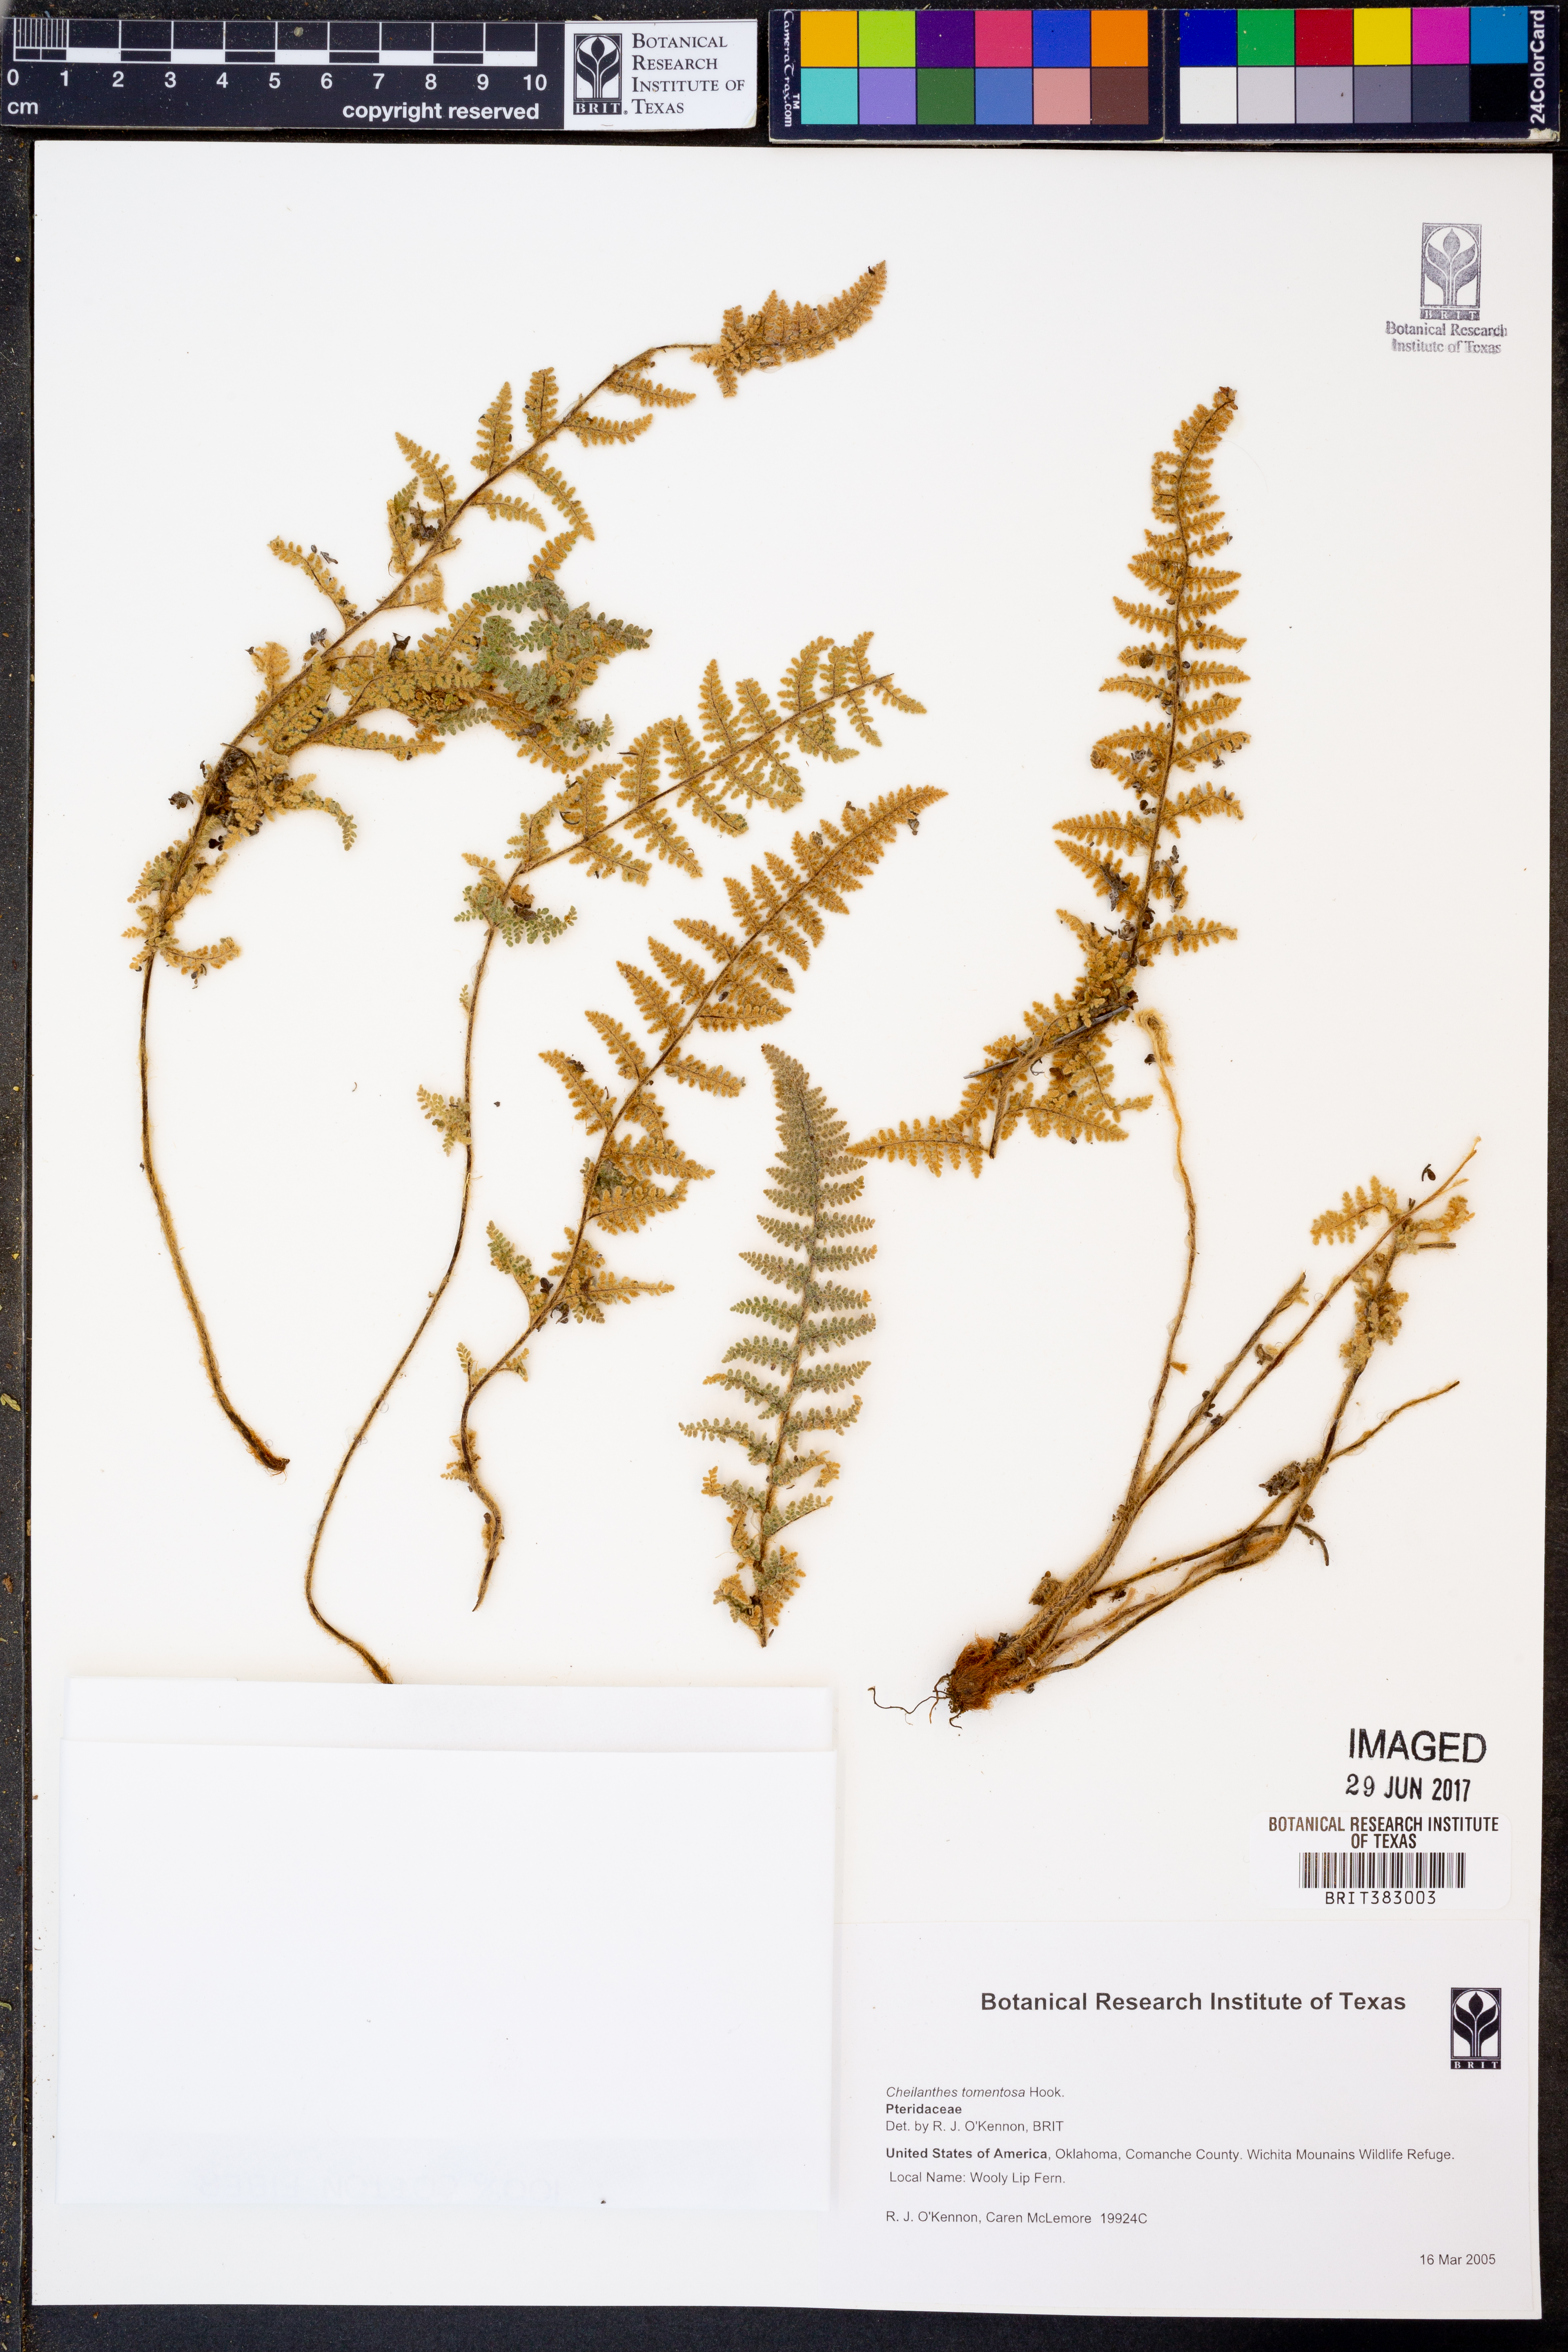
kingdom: Plantae
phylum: Tracheophyta
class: Polypodiopsida
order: Polypodiales
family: Pteridaceae
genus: Myriopteris
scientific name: Myriopteris tomentosa
